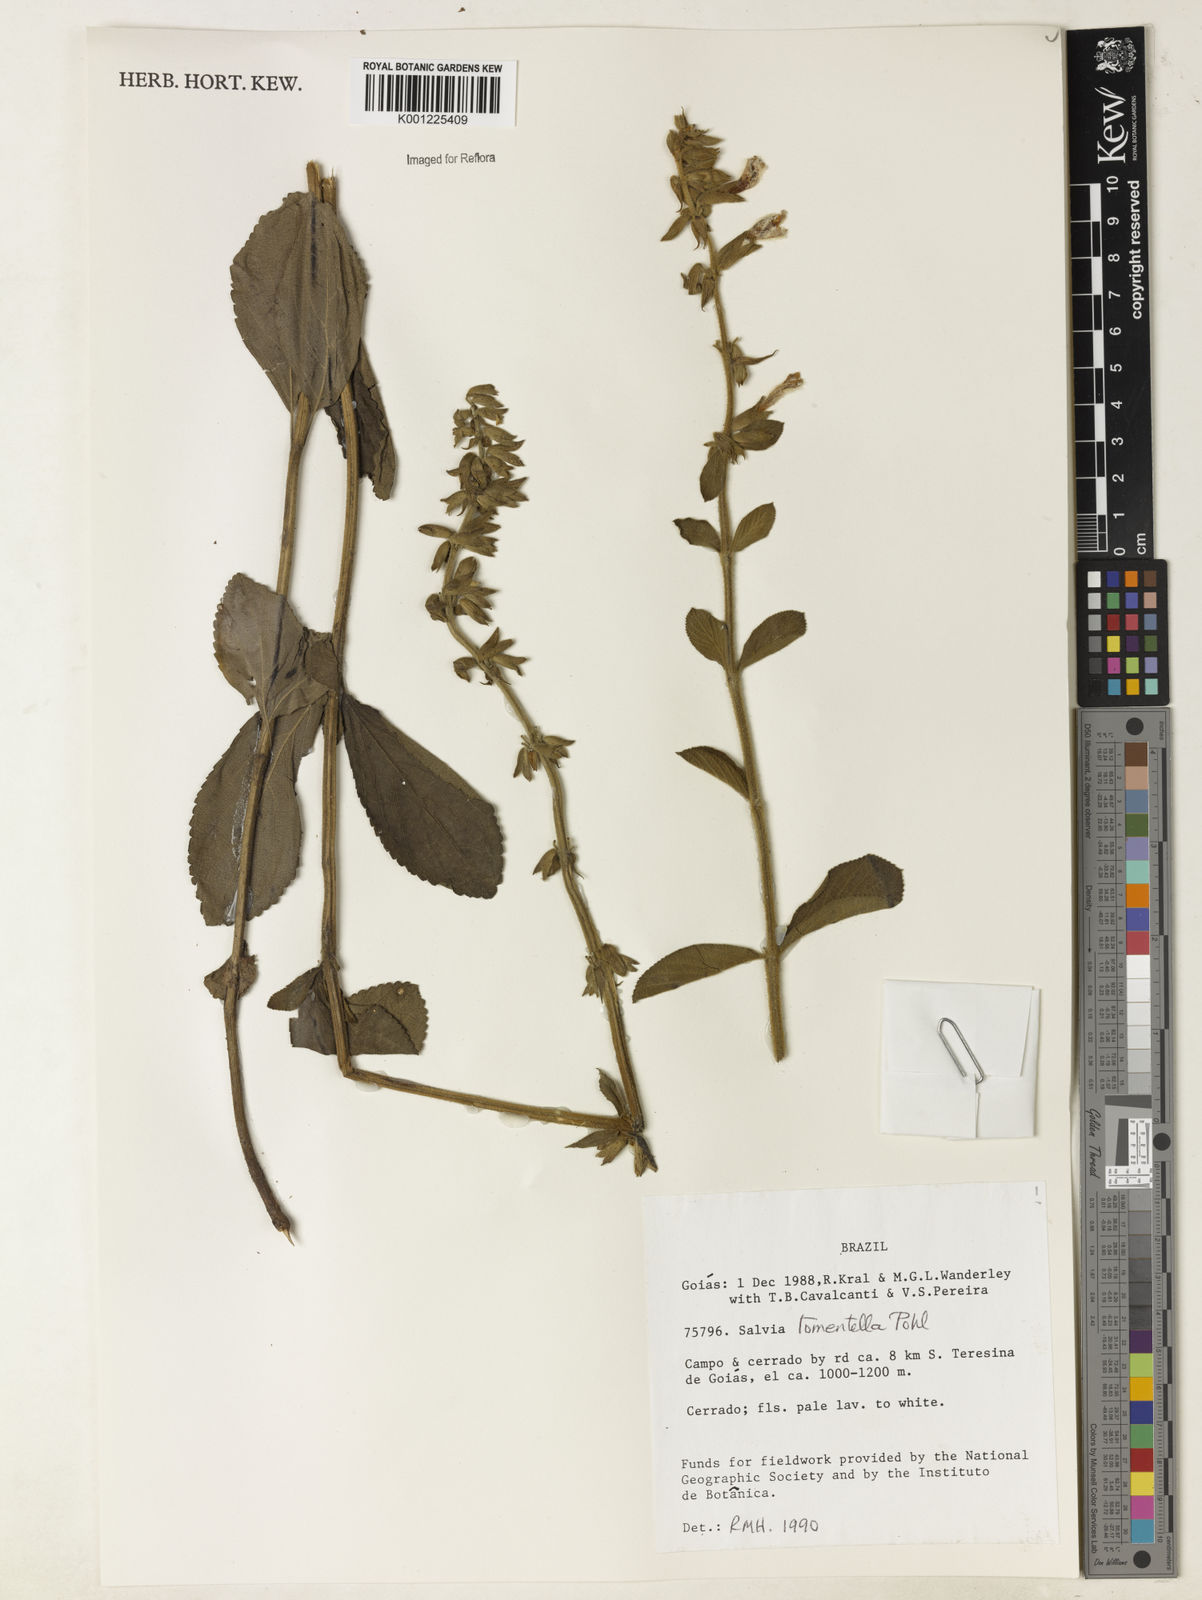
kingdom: Plantae
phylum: Tracheophyta
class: Magnoliopsida
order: Lamiales
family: Lamiaceae
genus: Salvia
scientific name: Salvia tomentella
